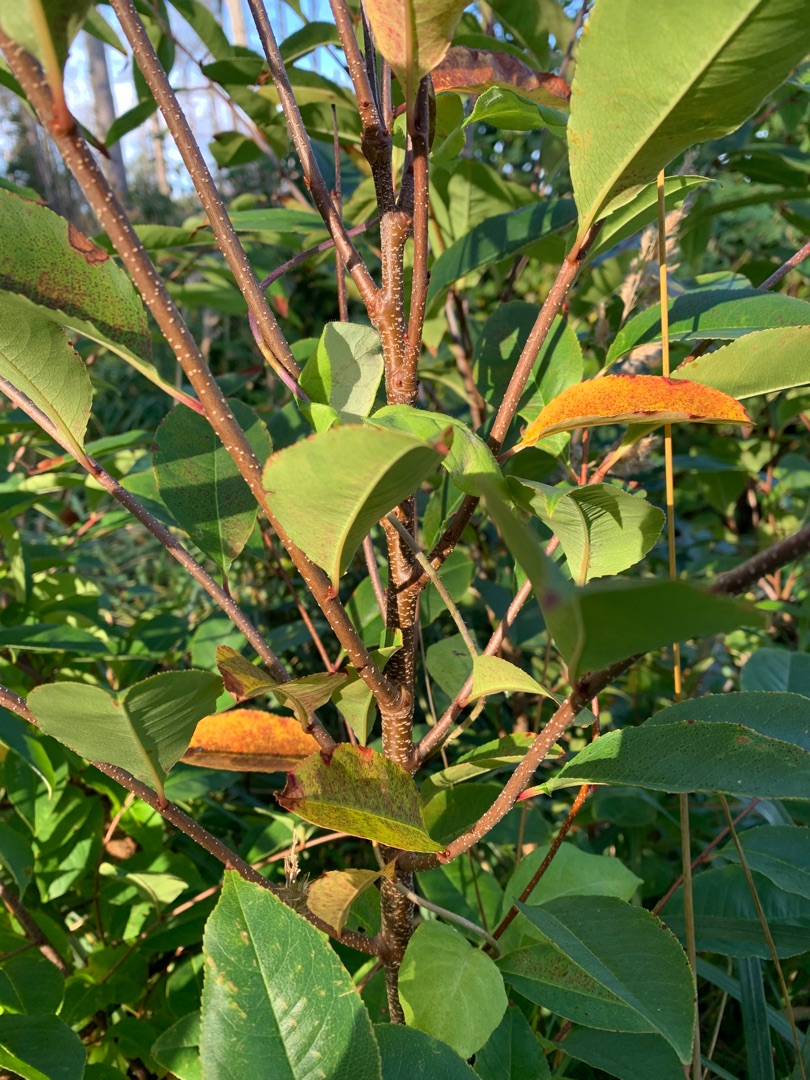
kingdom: Plantae
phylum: Tracheophyta
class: Magnoliopsida
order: Rosales
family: Rosaceae
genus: Prunus
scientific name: Prunus serotina
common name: Glansbladet hæg
